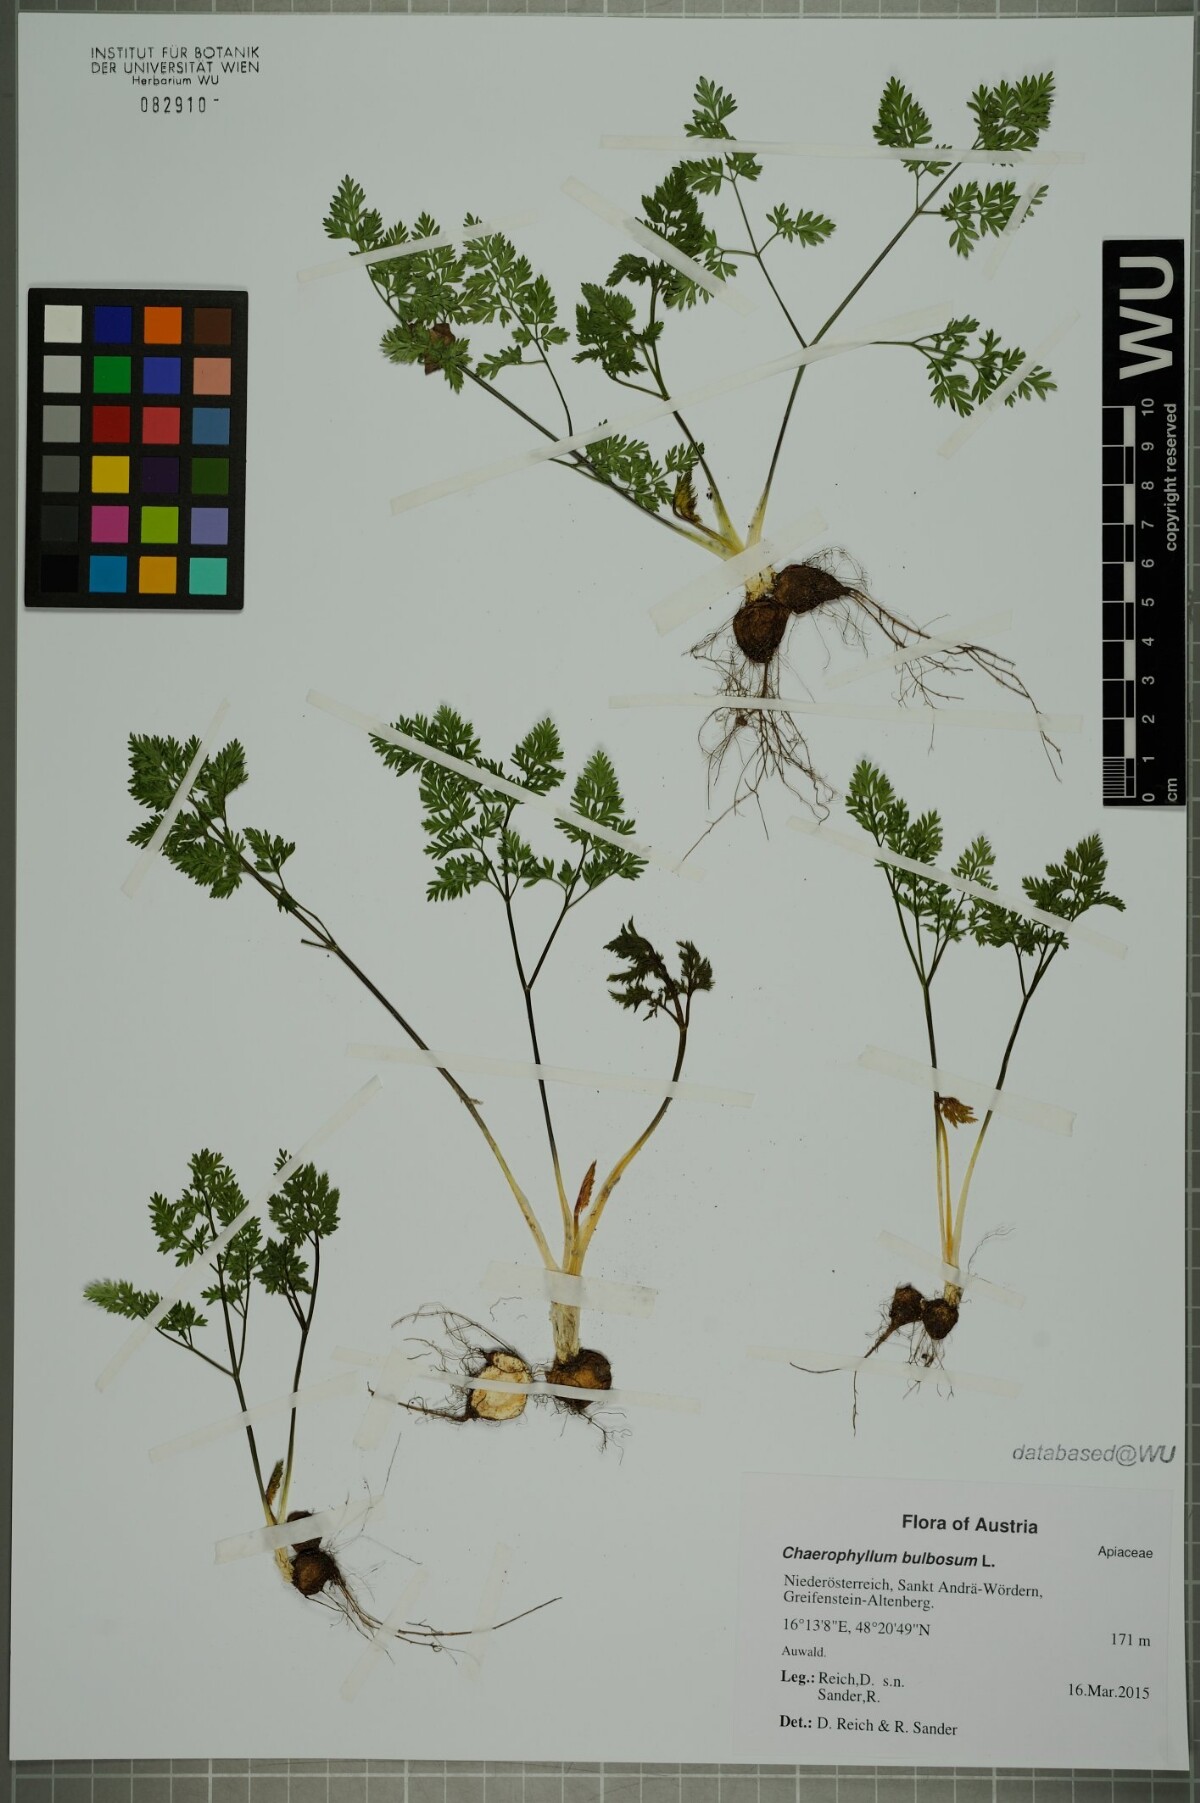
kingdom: Plantae
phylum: Tracheophyta
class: Magnoliopsida
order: Apiales
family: Apiaceae
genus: Chaerophyllum
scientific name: Chaerophyllum bulbosum
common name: Bulbous chervil
